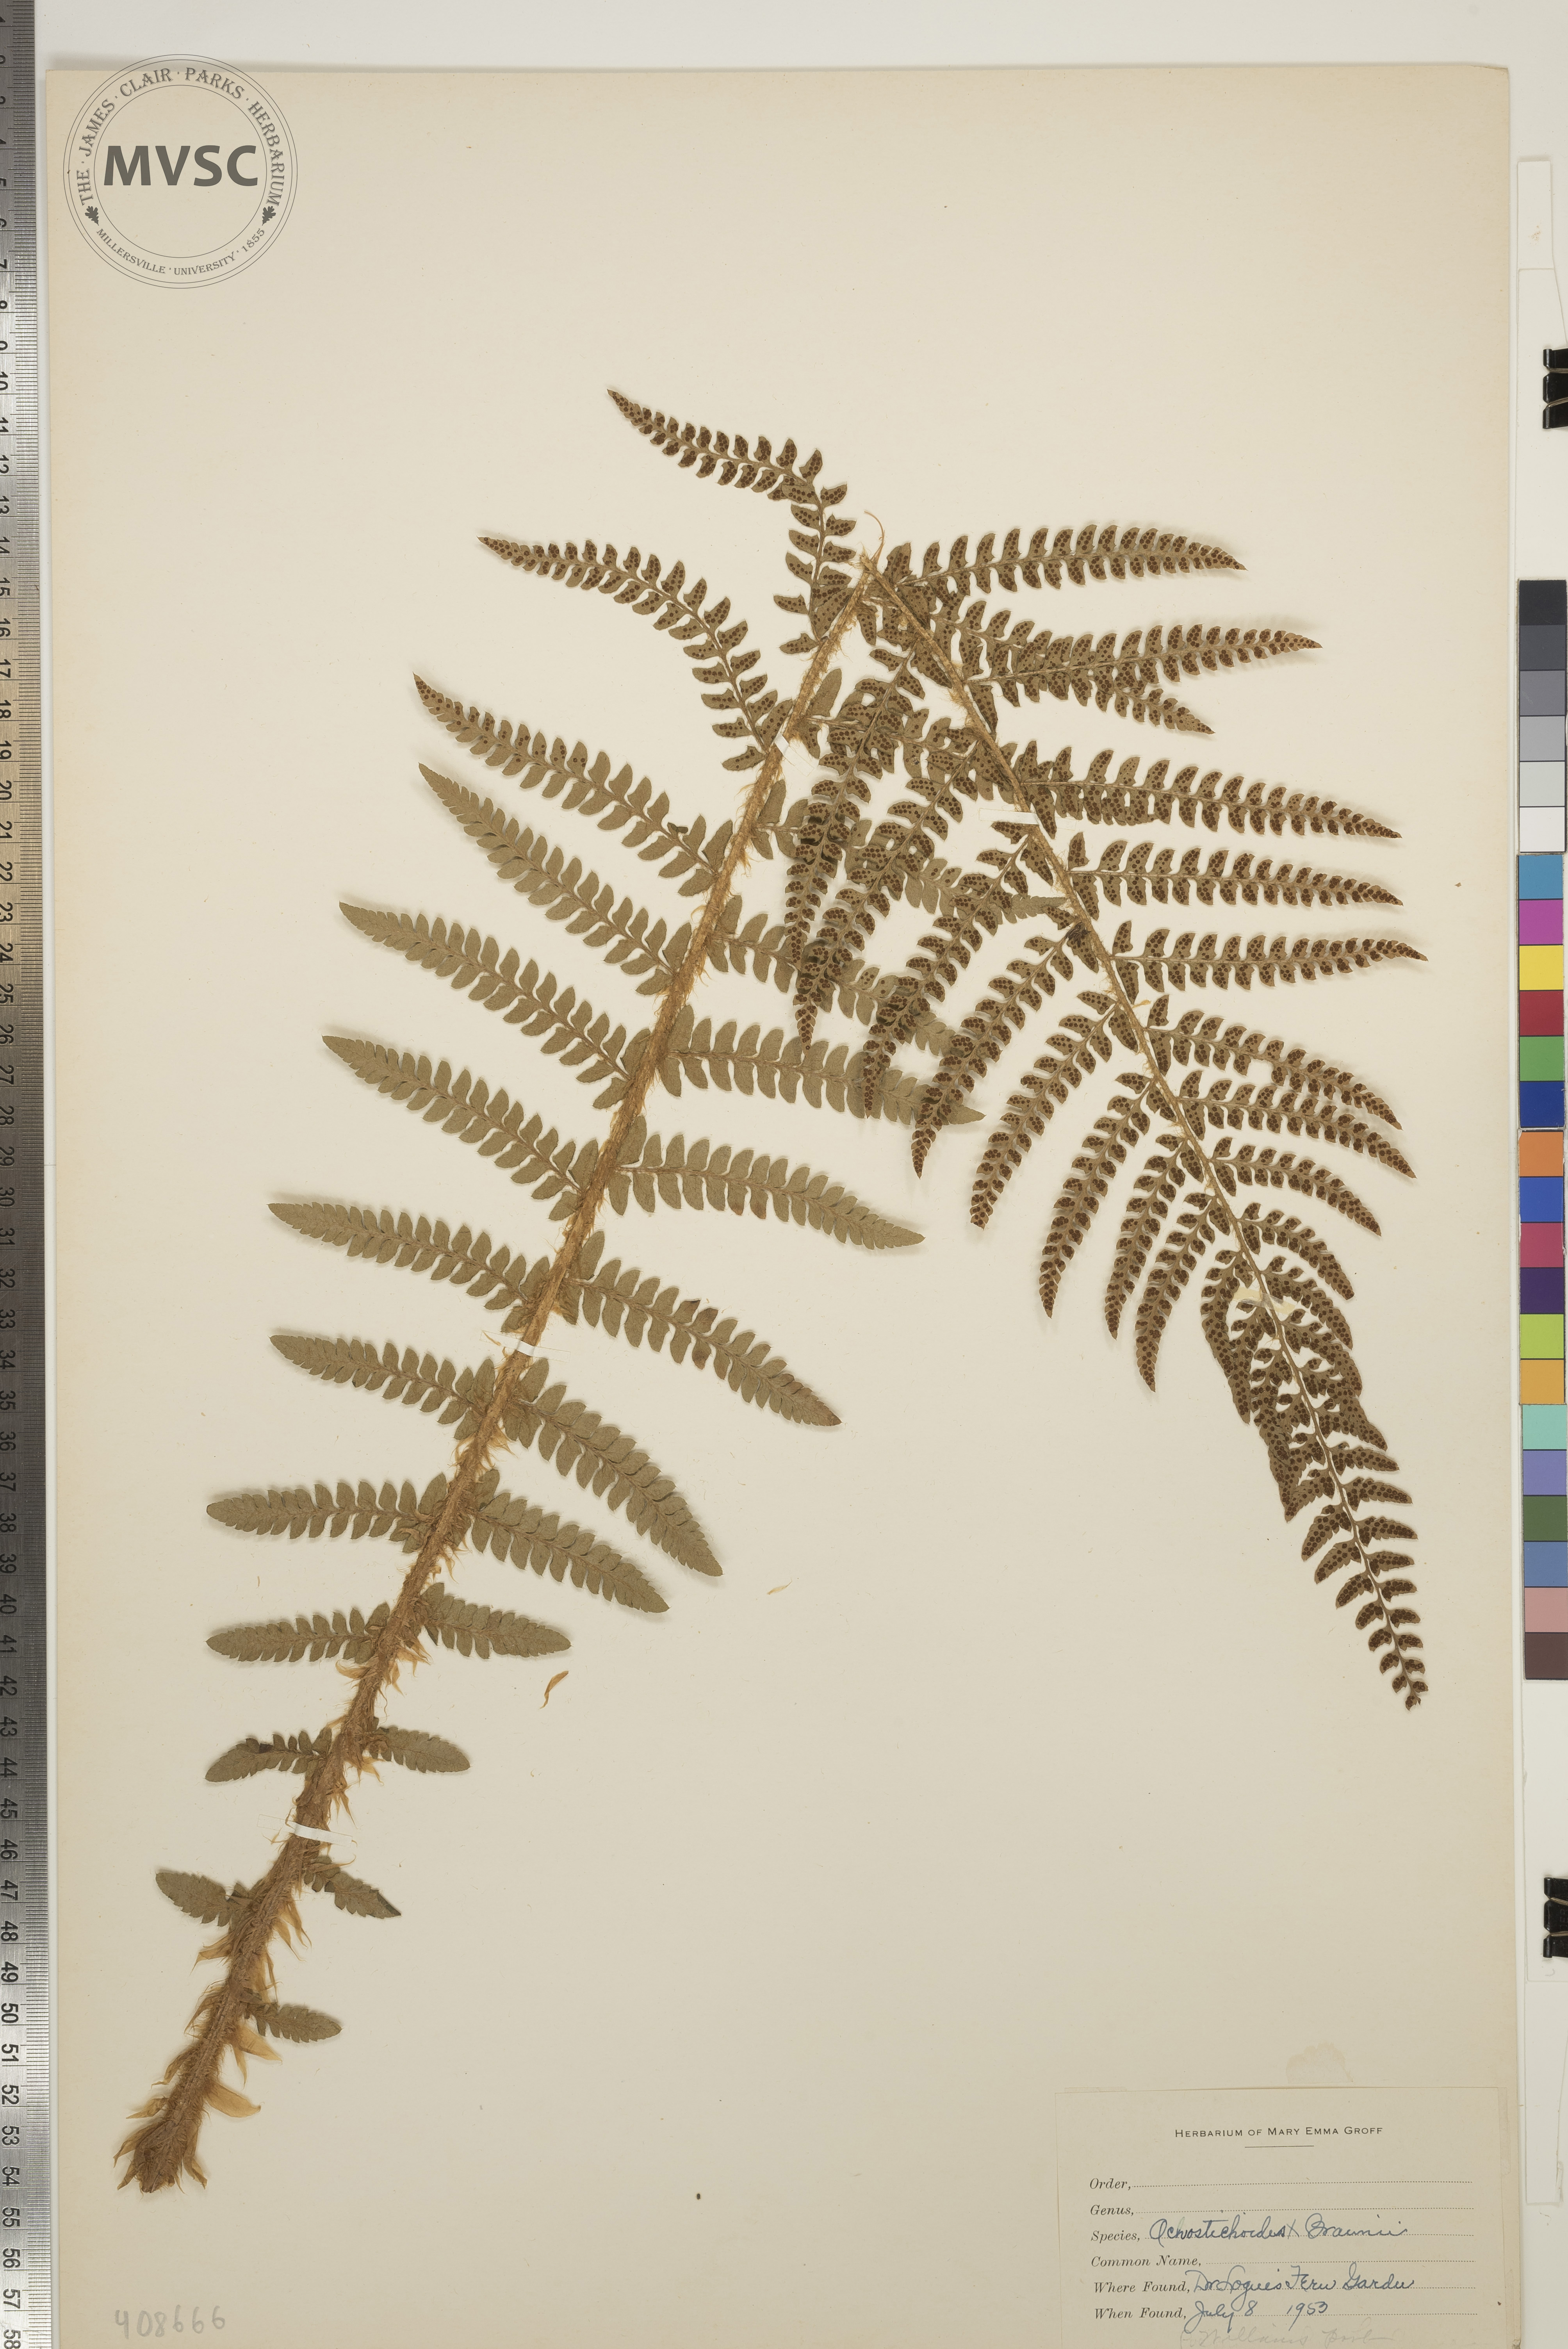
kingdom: Plantae
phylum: Tracheophyta
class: Polypodiopsida
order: Polypodiales
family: Dryopteridaceae
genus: Polystichum
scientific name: Polystichum
